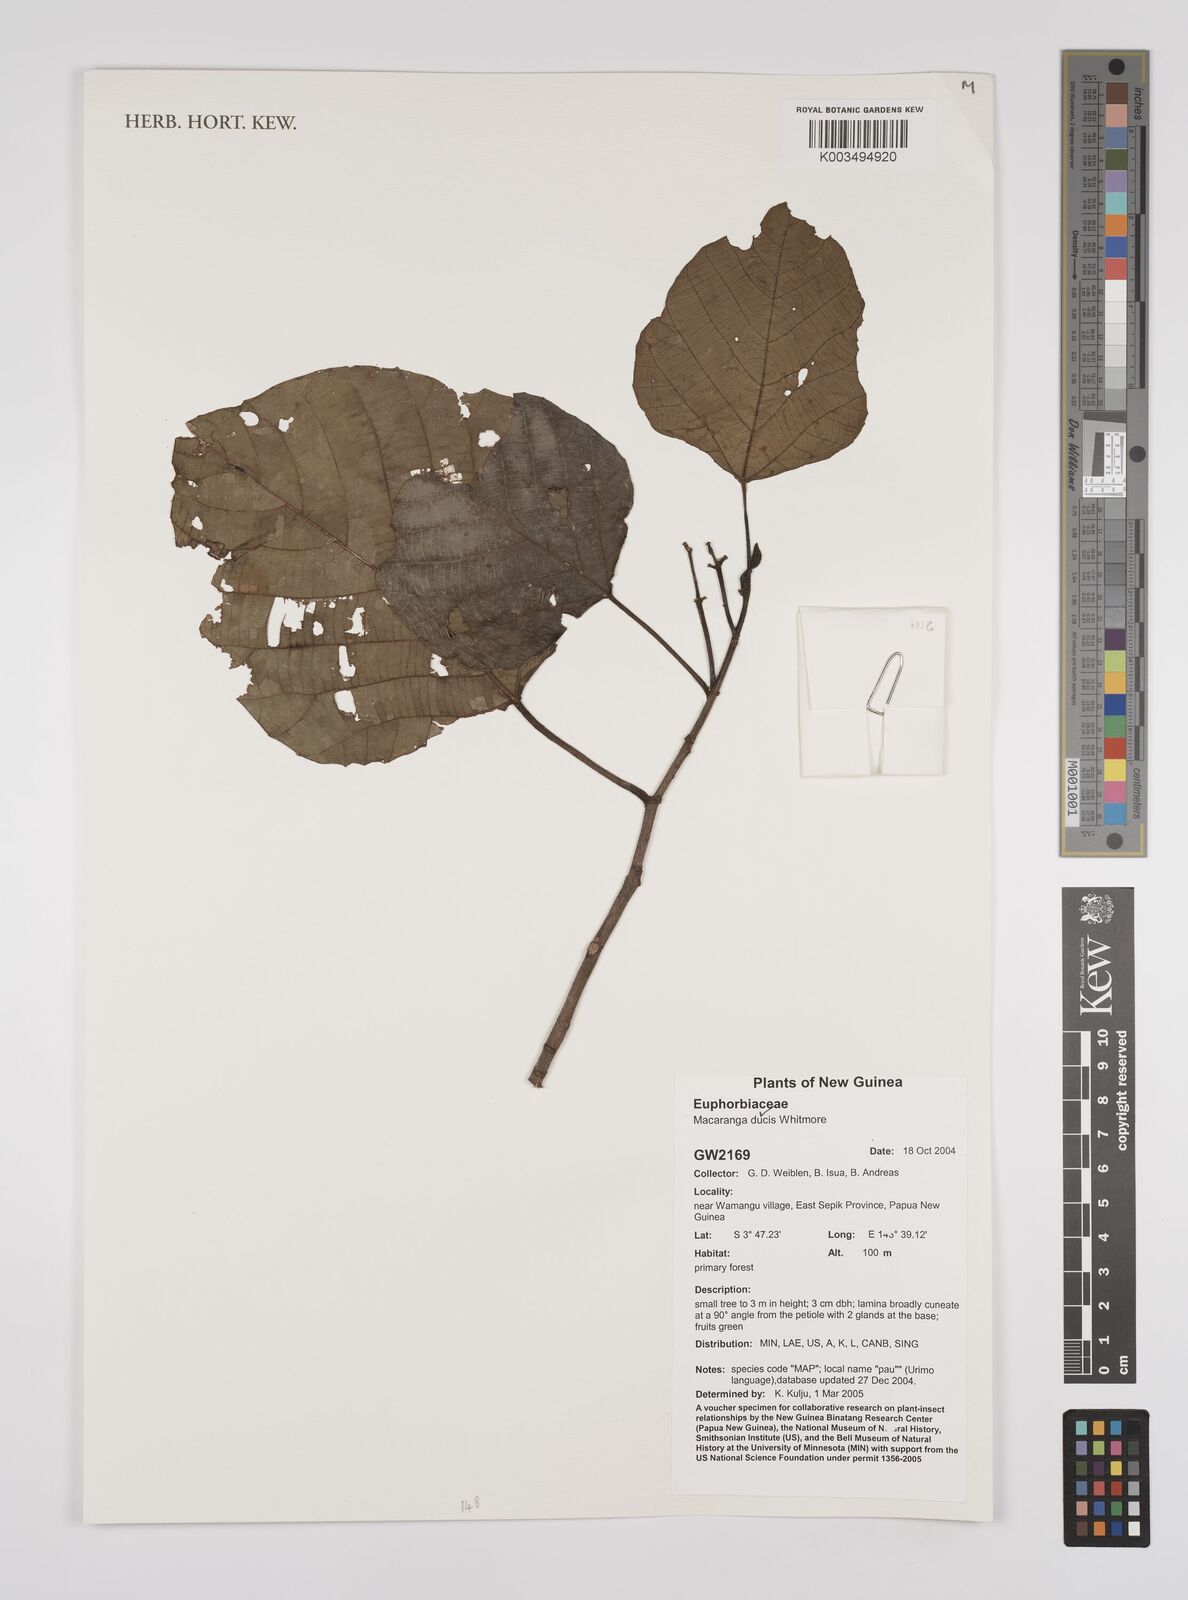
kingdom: Plantae
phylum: Tracheophyta
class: Magnoliopsida
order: Malpighiales
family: Euphorbiaceae
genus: Macaranga
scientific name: Macaranga ducis
